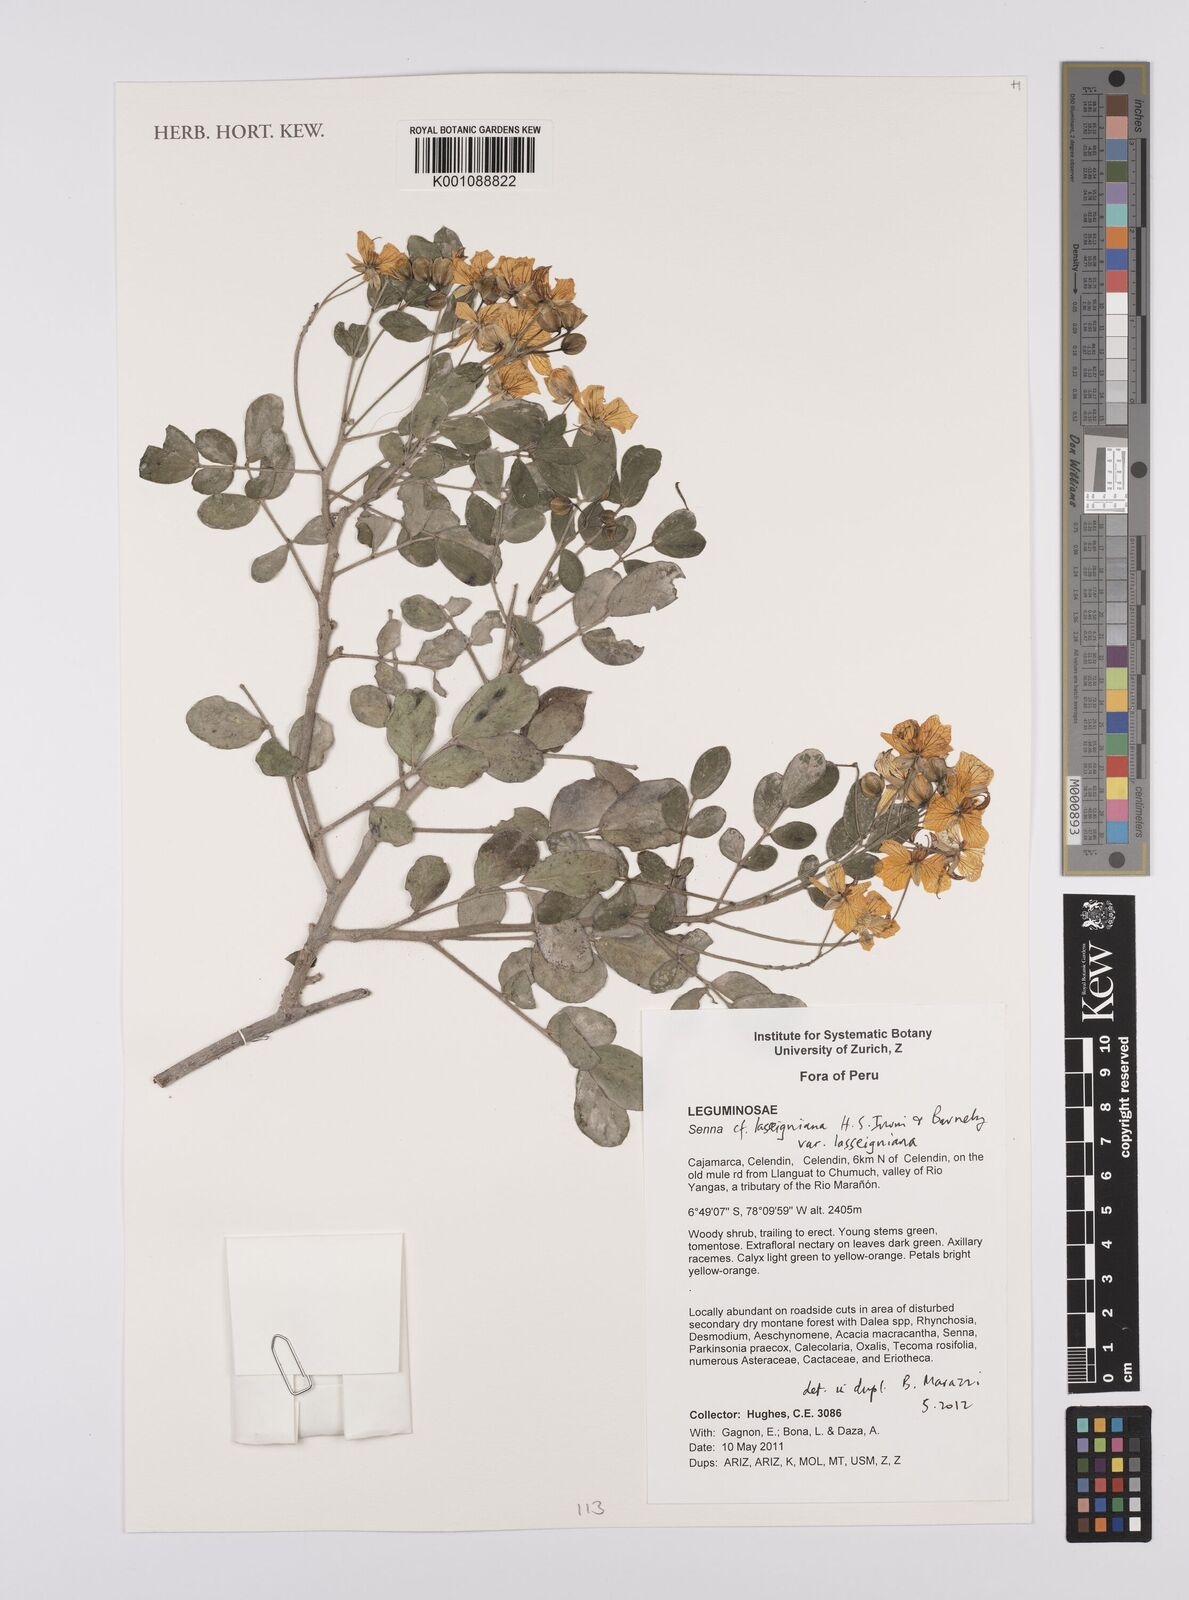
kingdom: Plantae
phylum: Tracheophyta
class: Magnoliopsida
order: Fabales
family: Fabaceae
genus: Senna
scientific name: Senna
